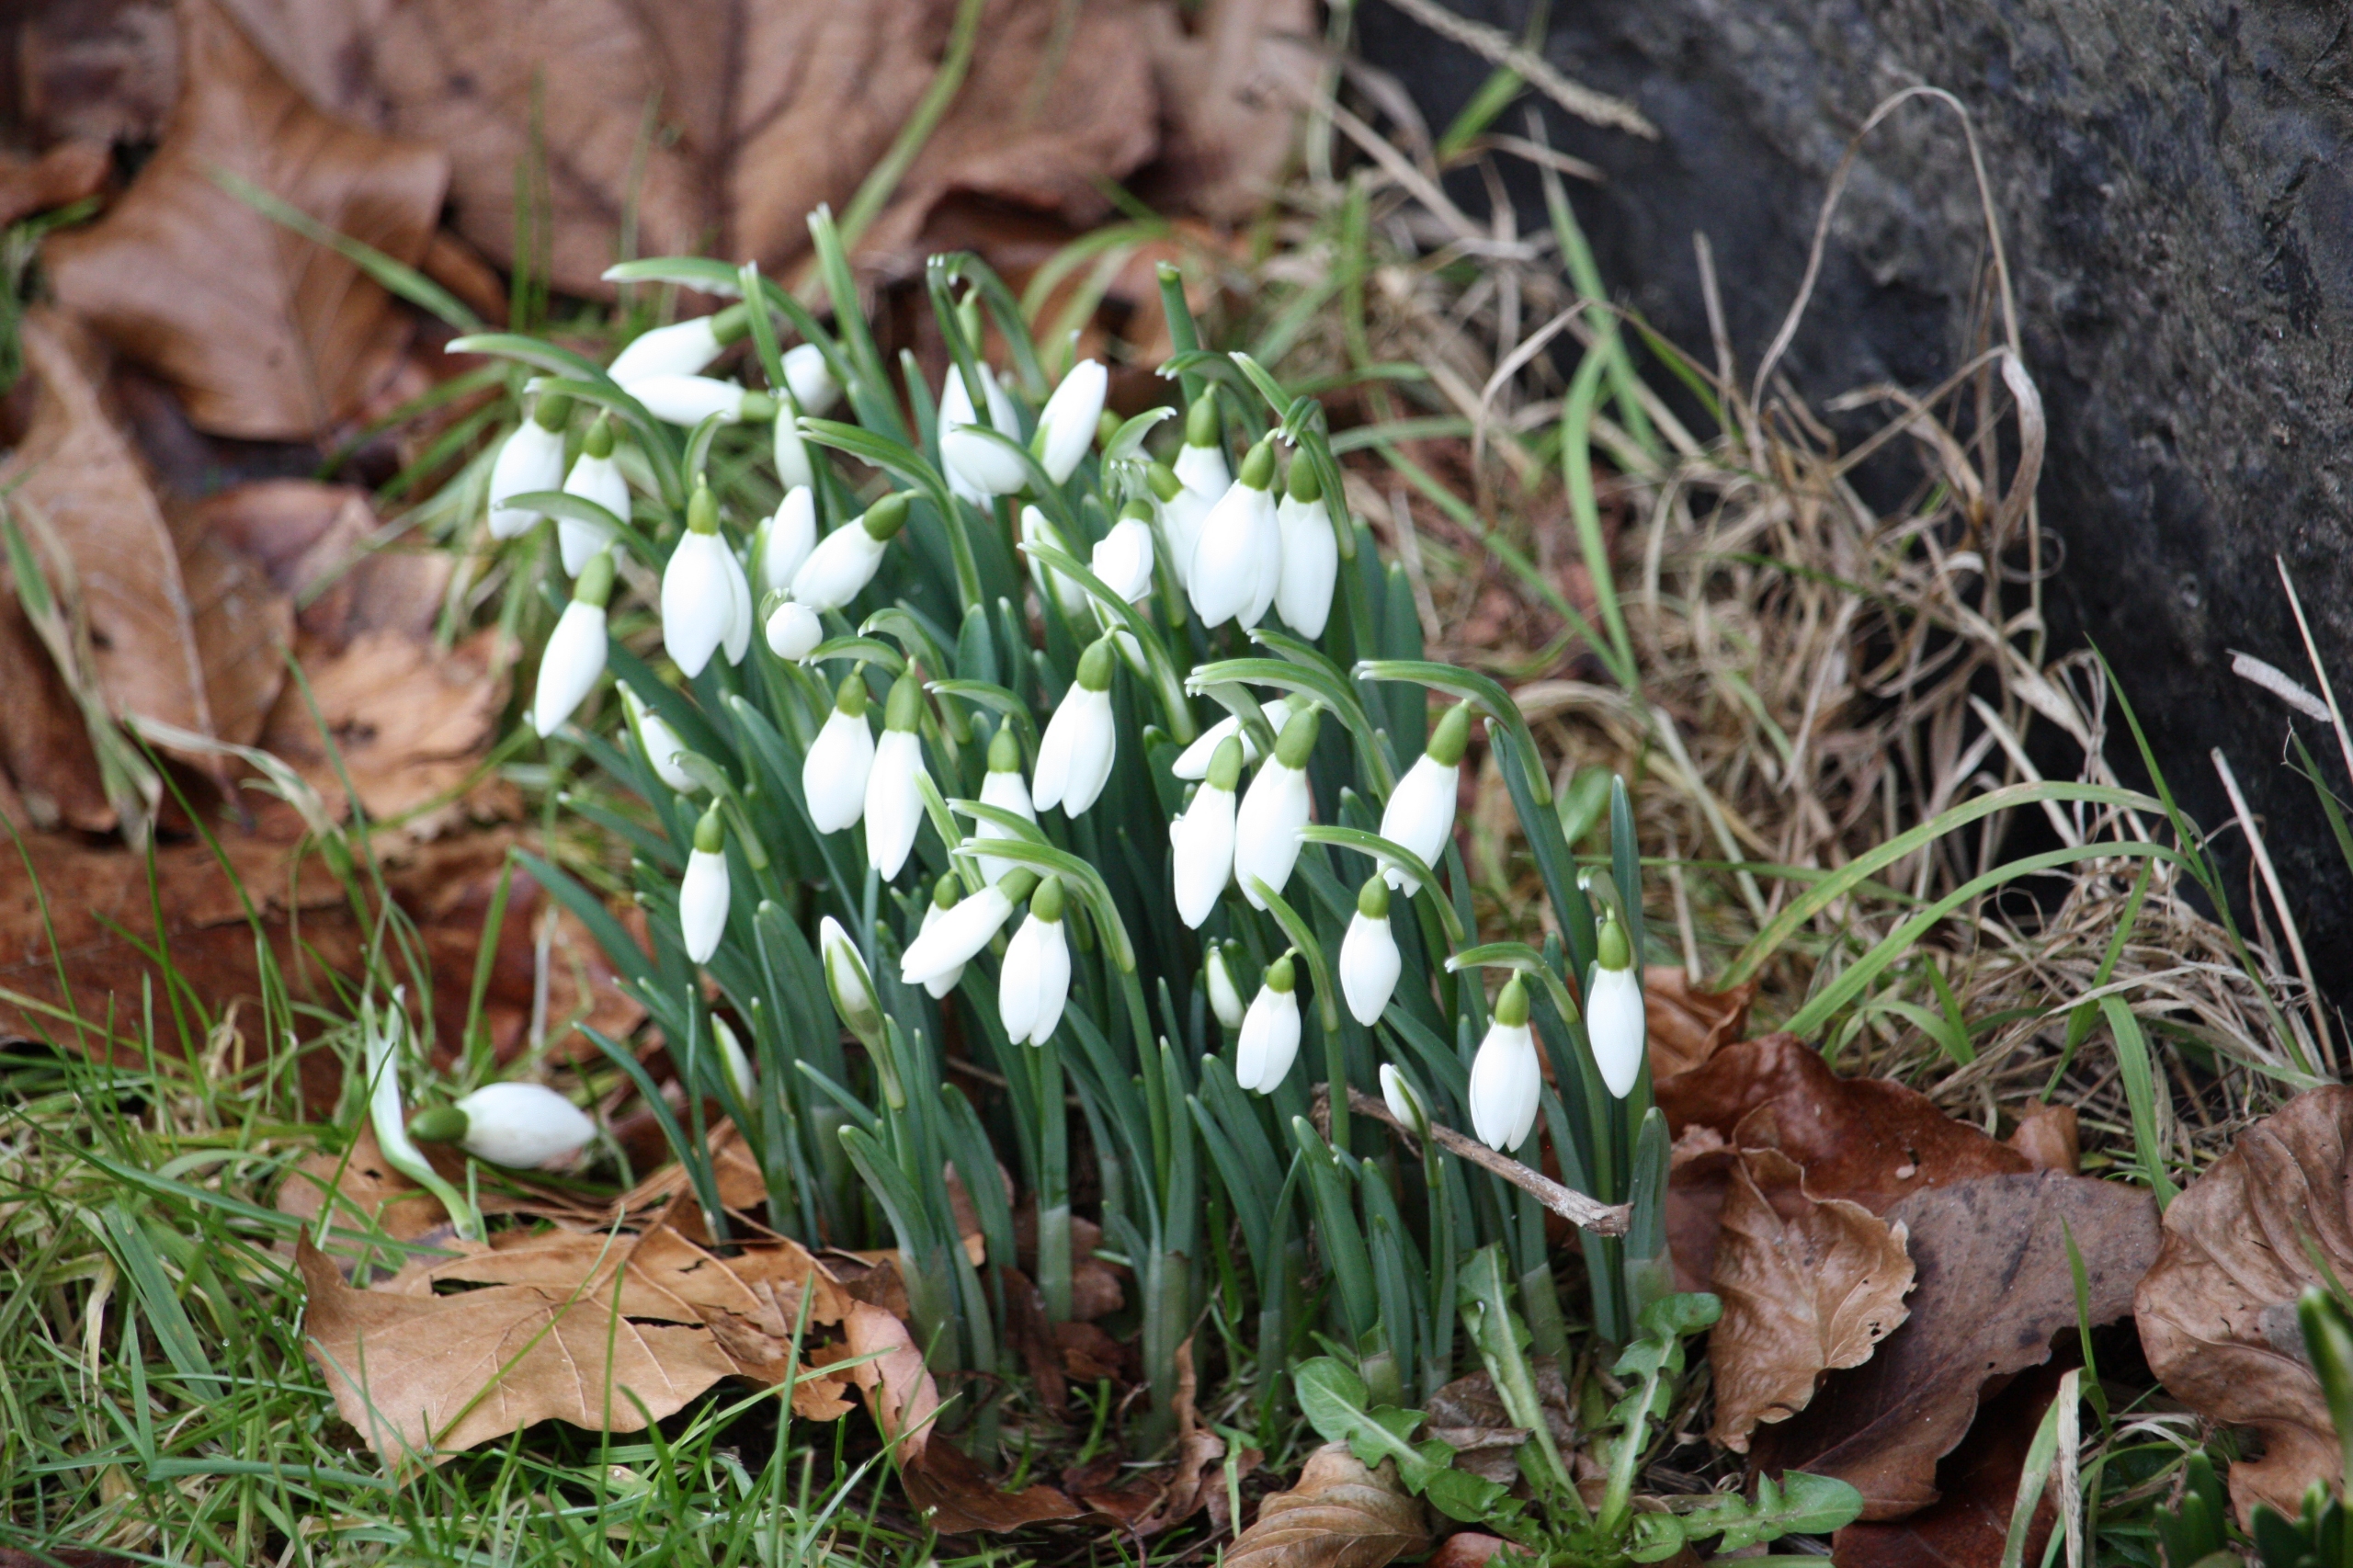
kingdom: Plantae
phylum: Tracheophyta
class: Liliopsida
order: Asparagales
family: Amaryllidaceae
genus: Galanthus
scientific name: Galanthus nivalis
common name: Vintergæk
